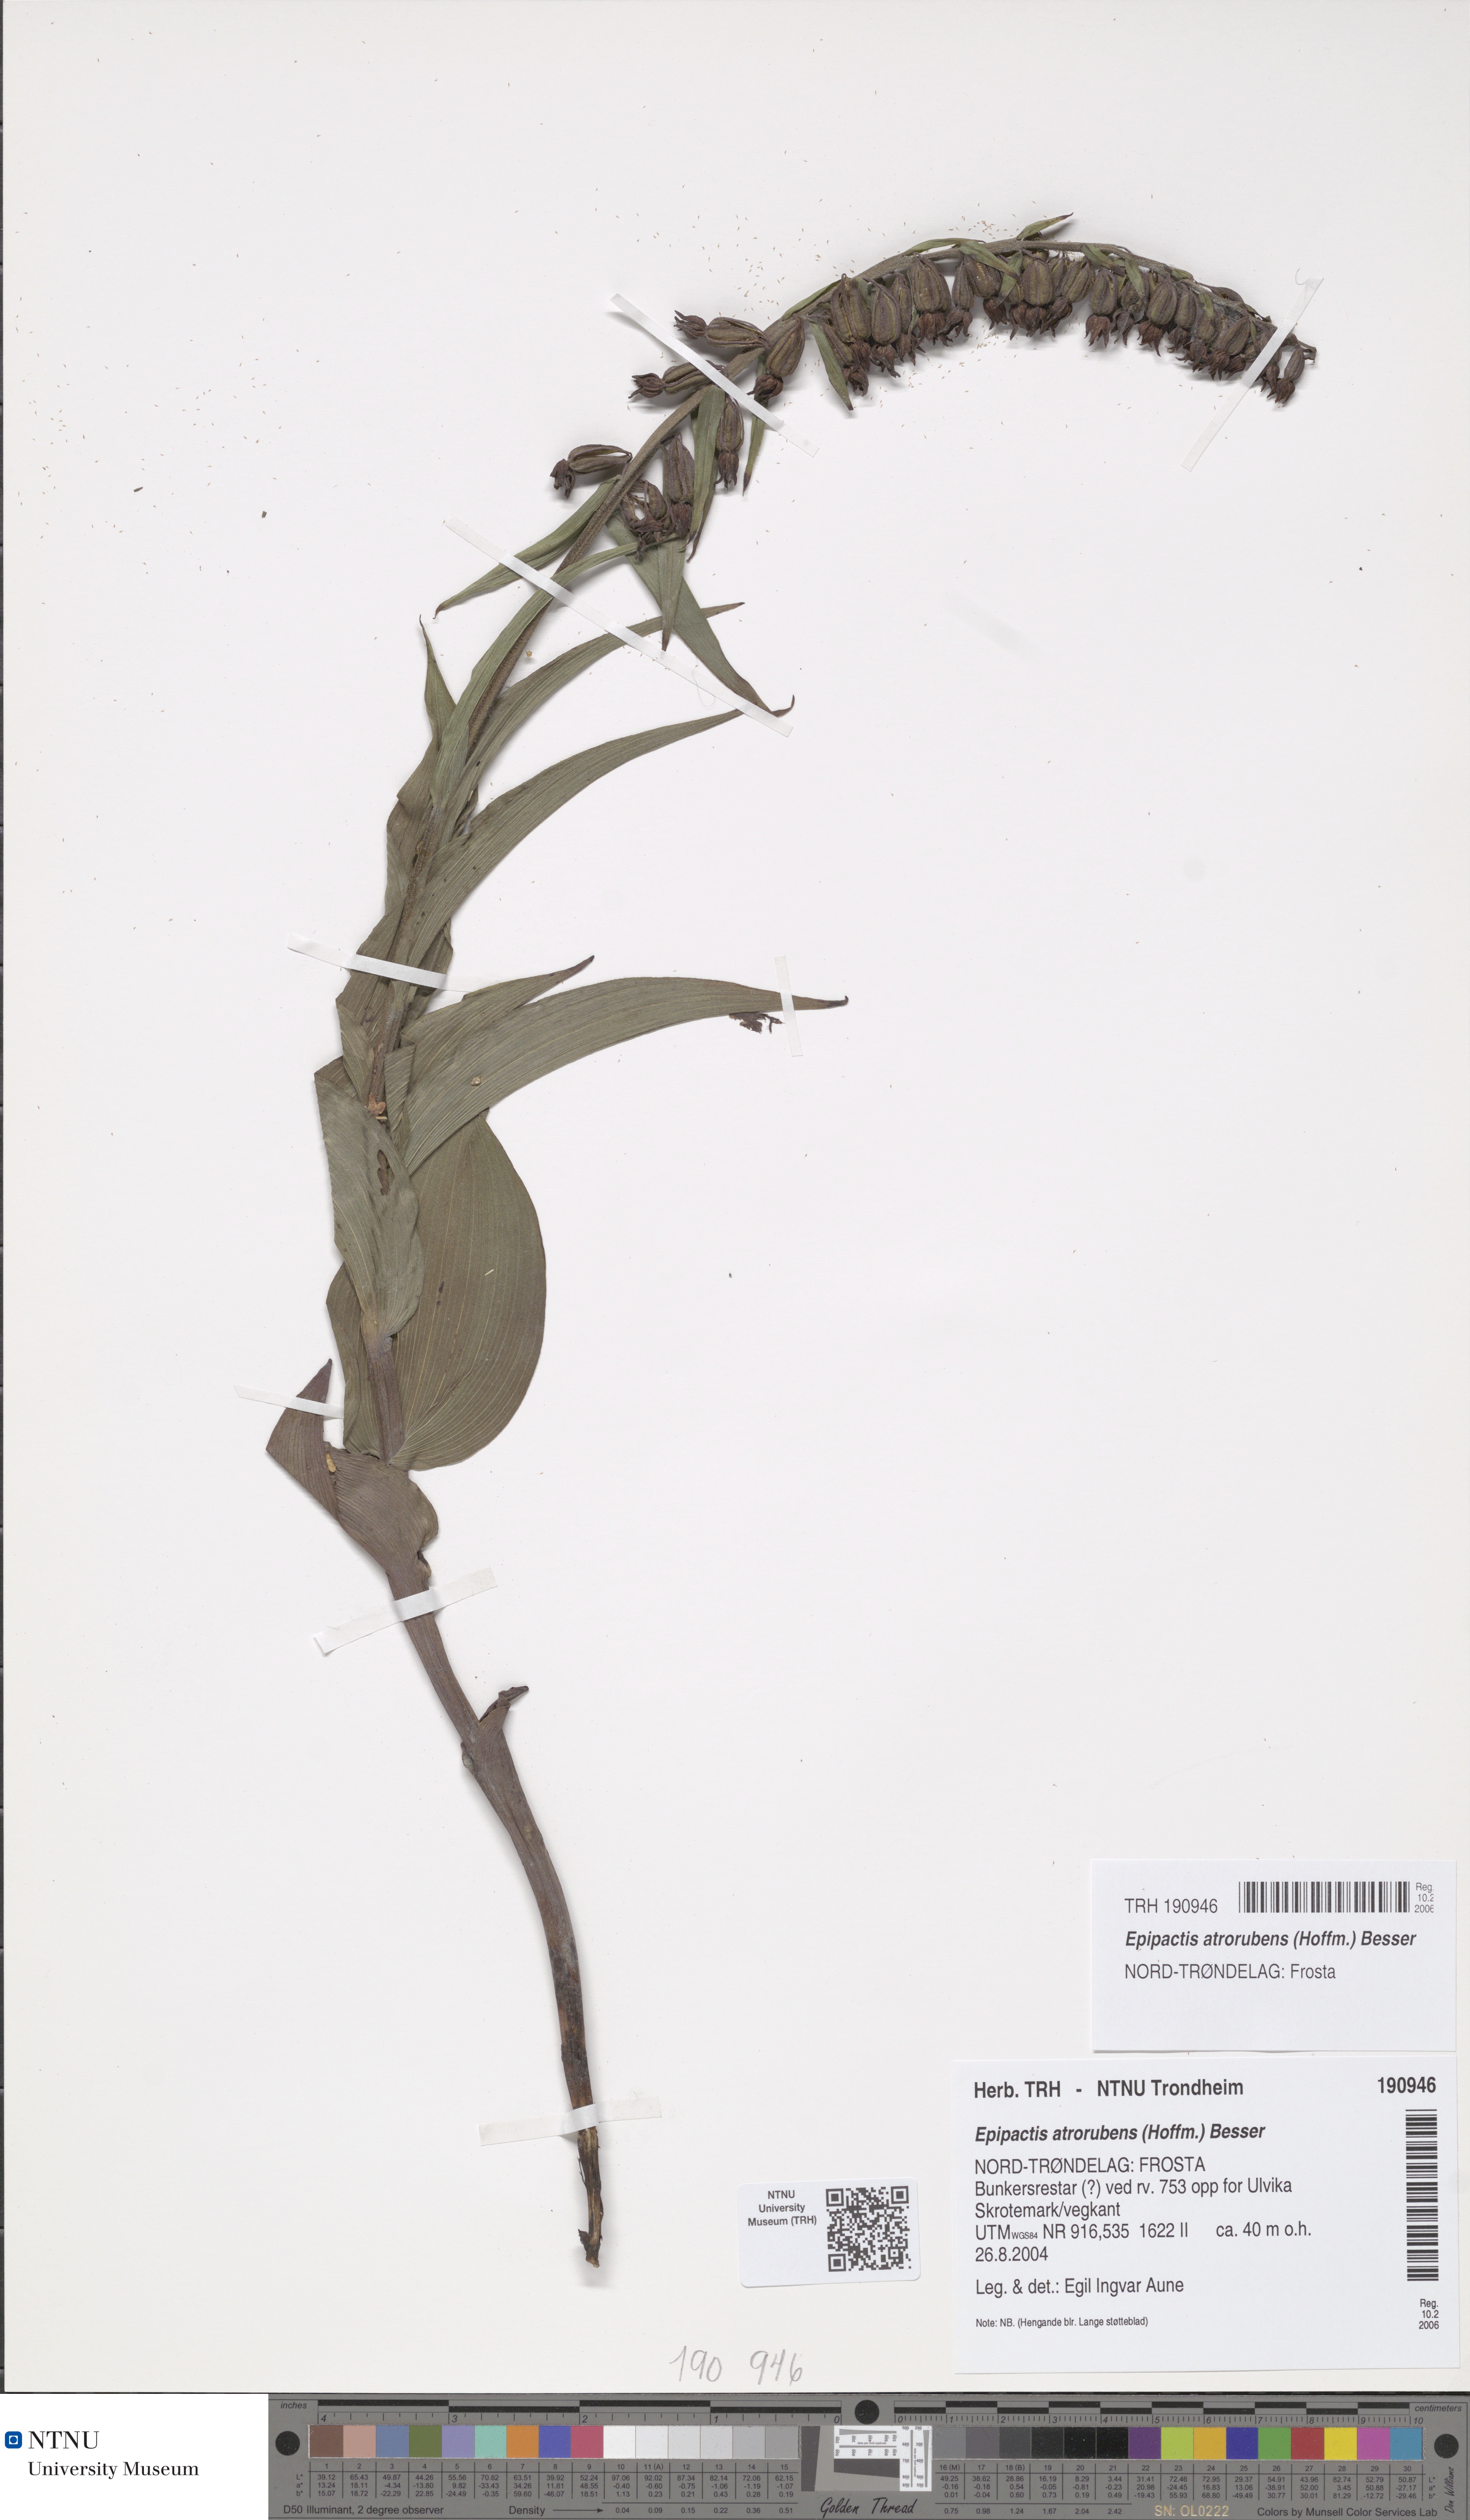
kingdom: Plantae
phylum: Tracheophyta
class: Liliopsida
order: Asparagales
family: Orchidaceae
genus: Epipactis
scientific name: Epipactis atrorubens
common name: Dark-red helleborine
